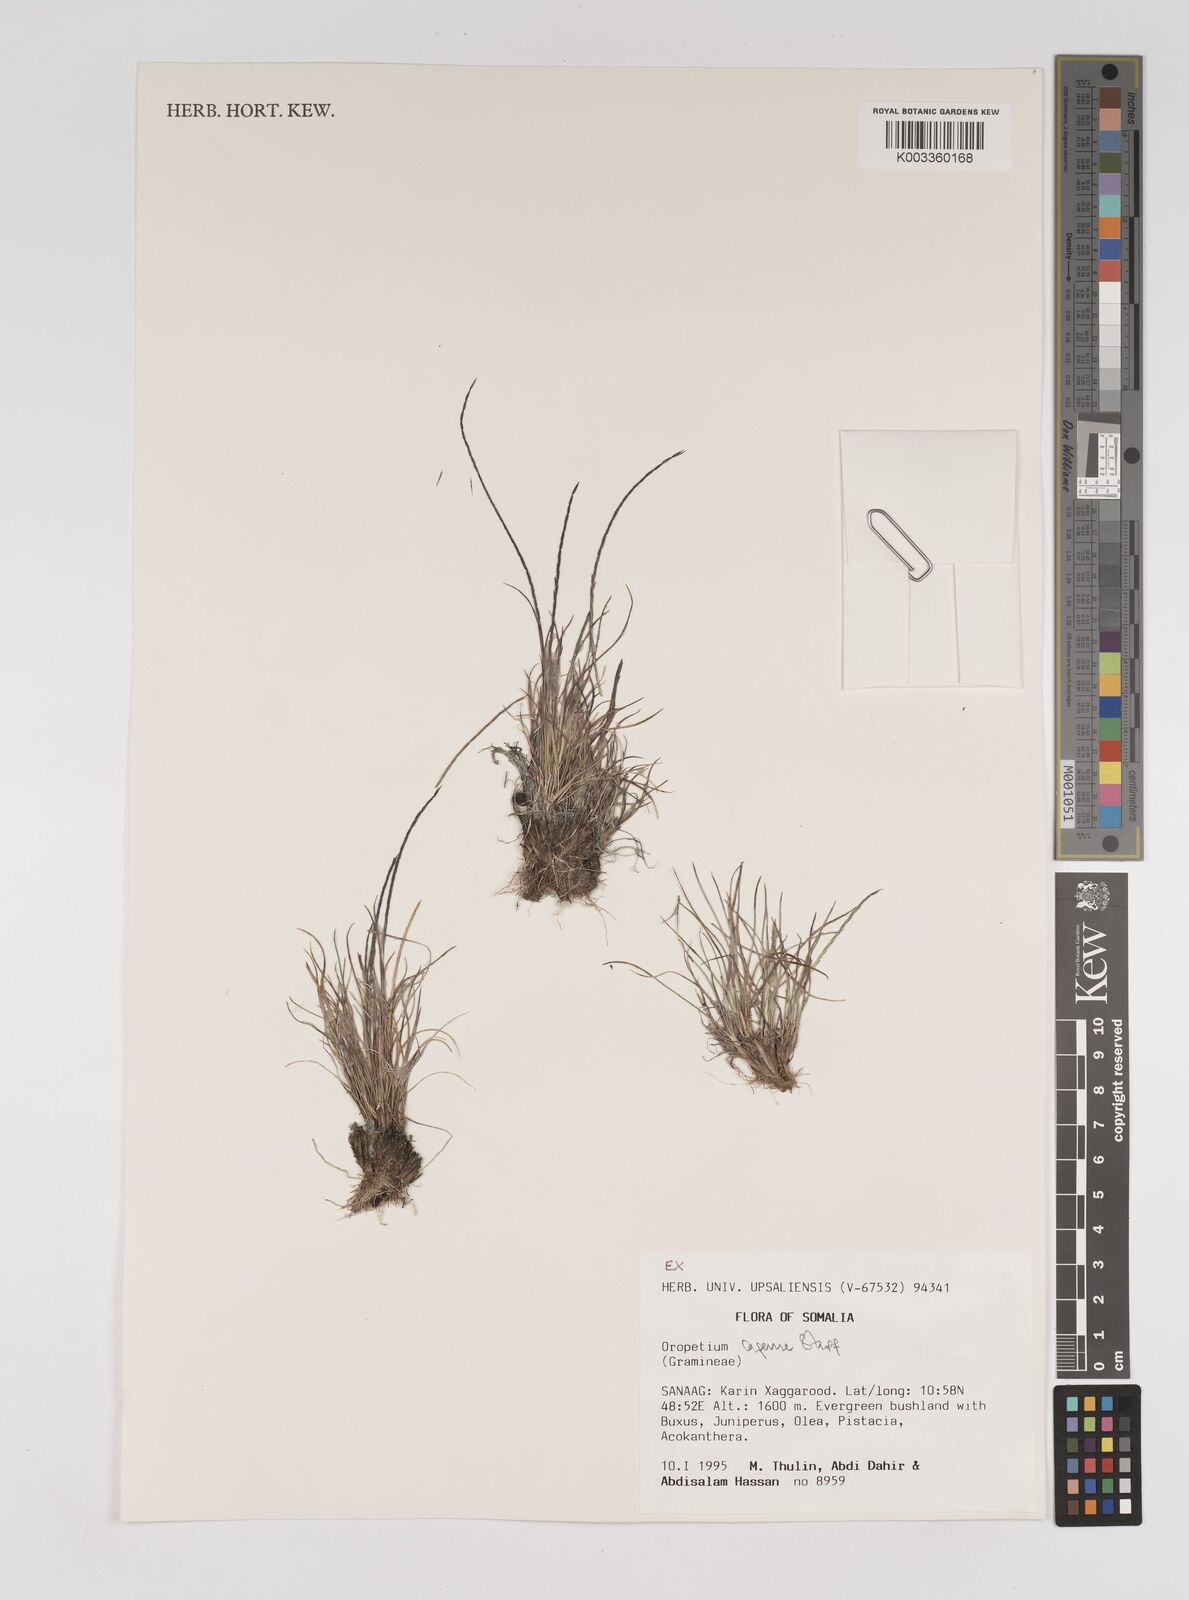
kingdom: Plantae
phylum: Tracheophyta
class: Liliopsida
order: Poales
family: Poaceae
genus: Oropetium
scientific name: Oropetium capense
